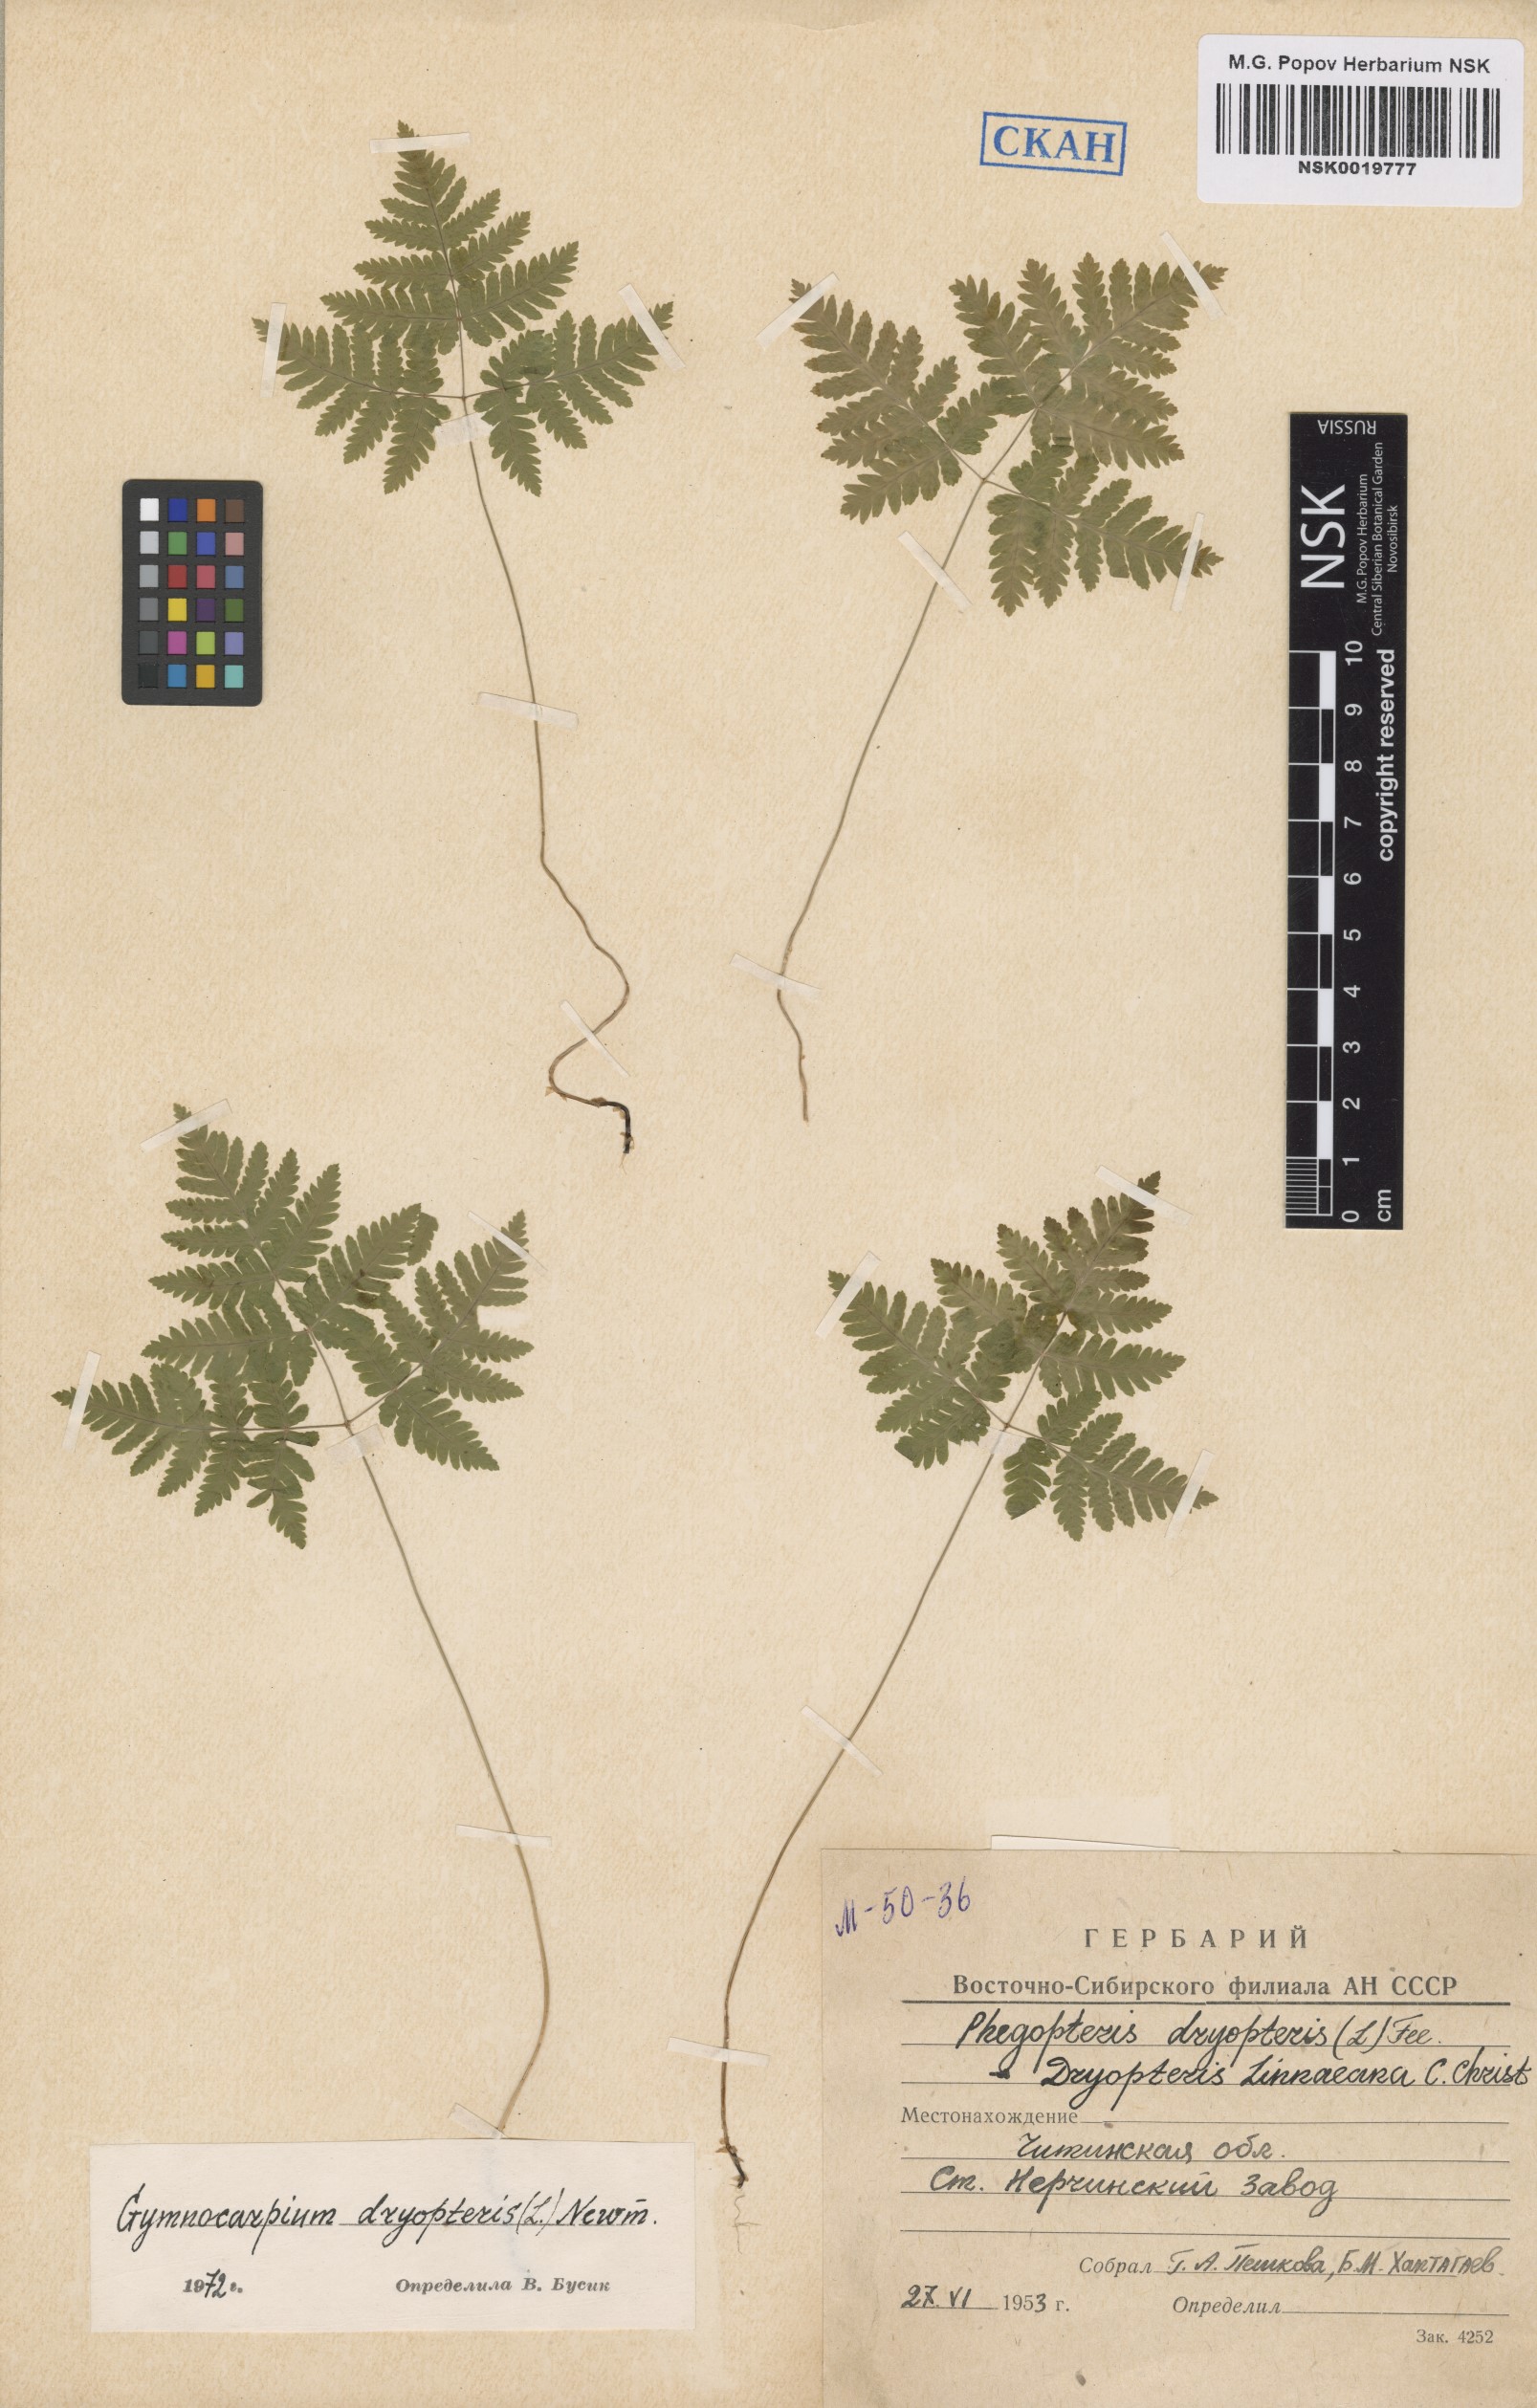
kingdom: Plantae
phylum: Tracheophyta
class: Polypodiopsida
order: Polypodiales
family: Cystopteridaceae
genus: Gymnocarpium
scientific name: Gymnocarpium dryopteris
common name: Oak fern
